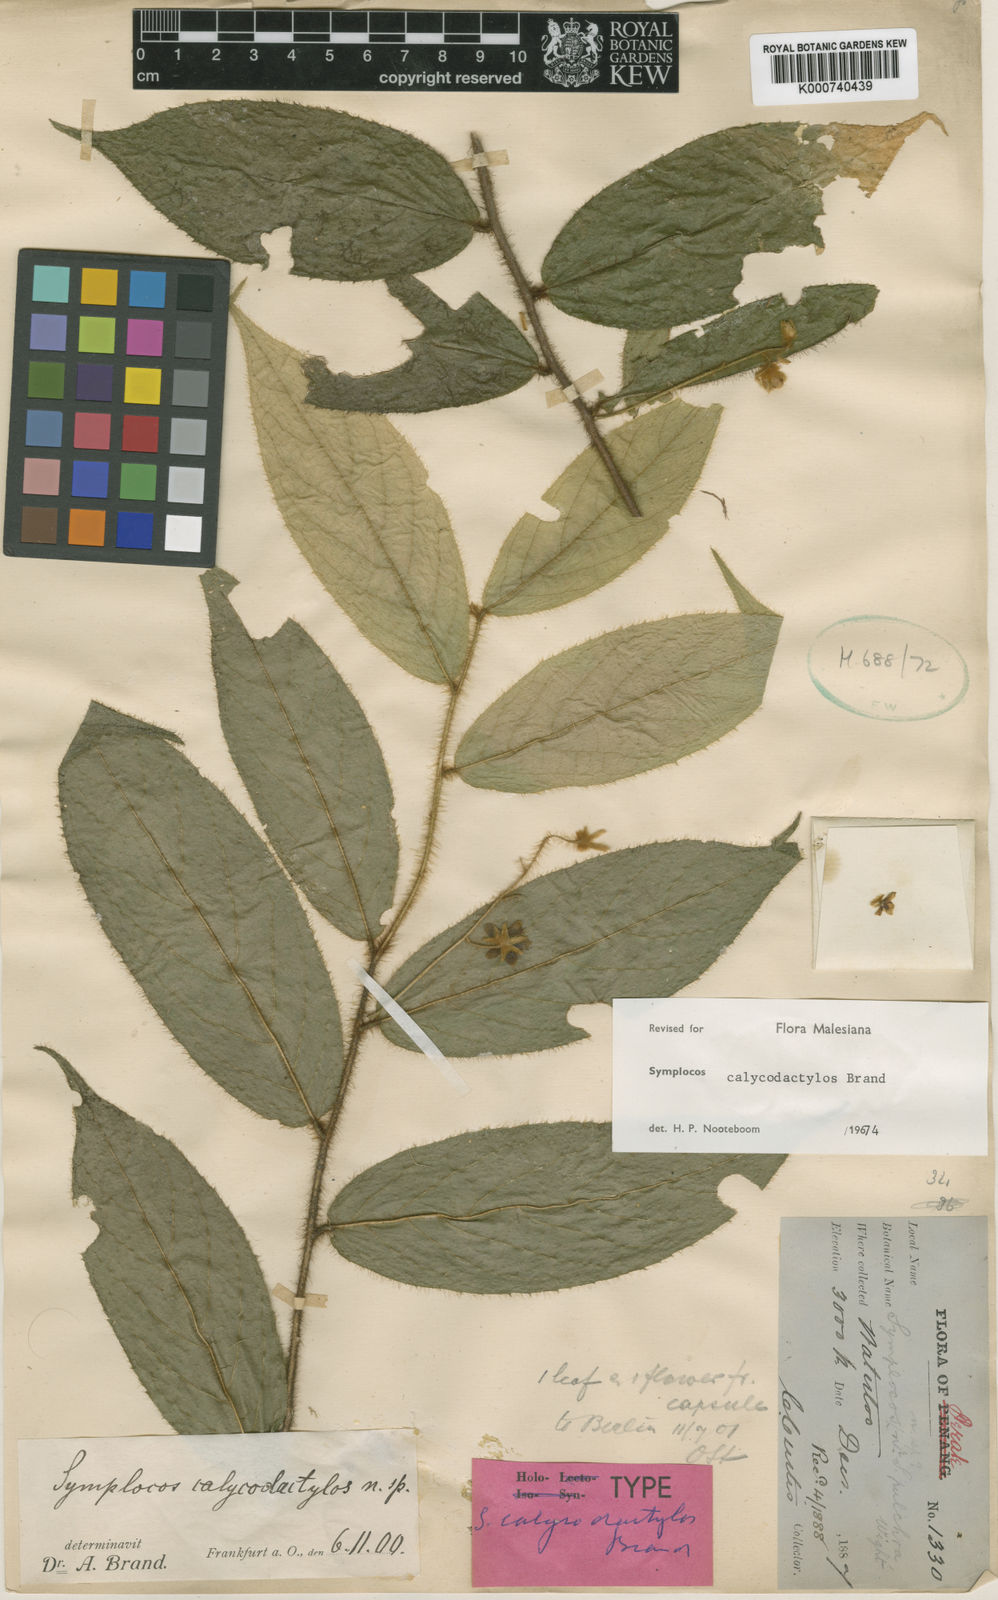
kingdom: Plantae
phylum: Tracheophyta
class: Magnoliopsida
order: Ericales
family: Symplocaceae
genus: Symplocos
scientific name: Symplocos calycodactylos
